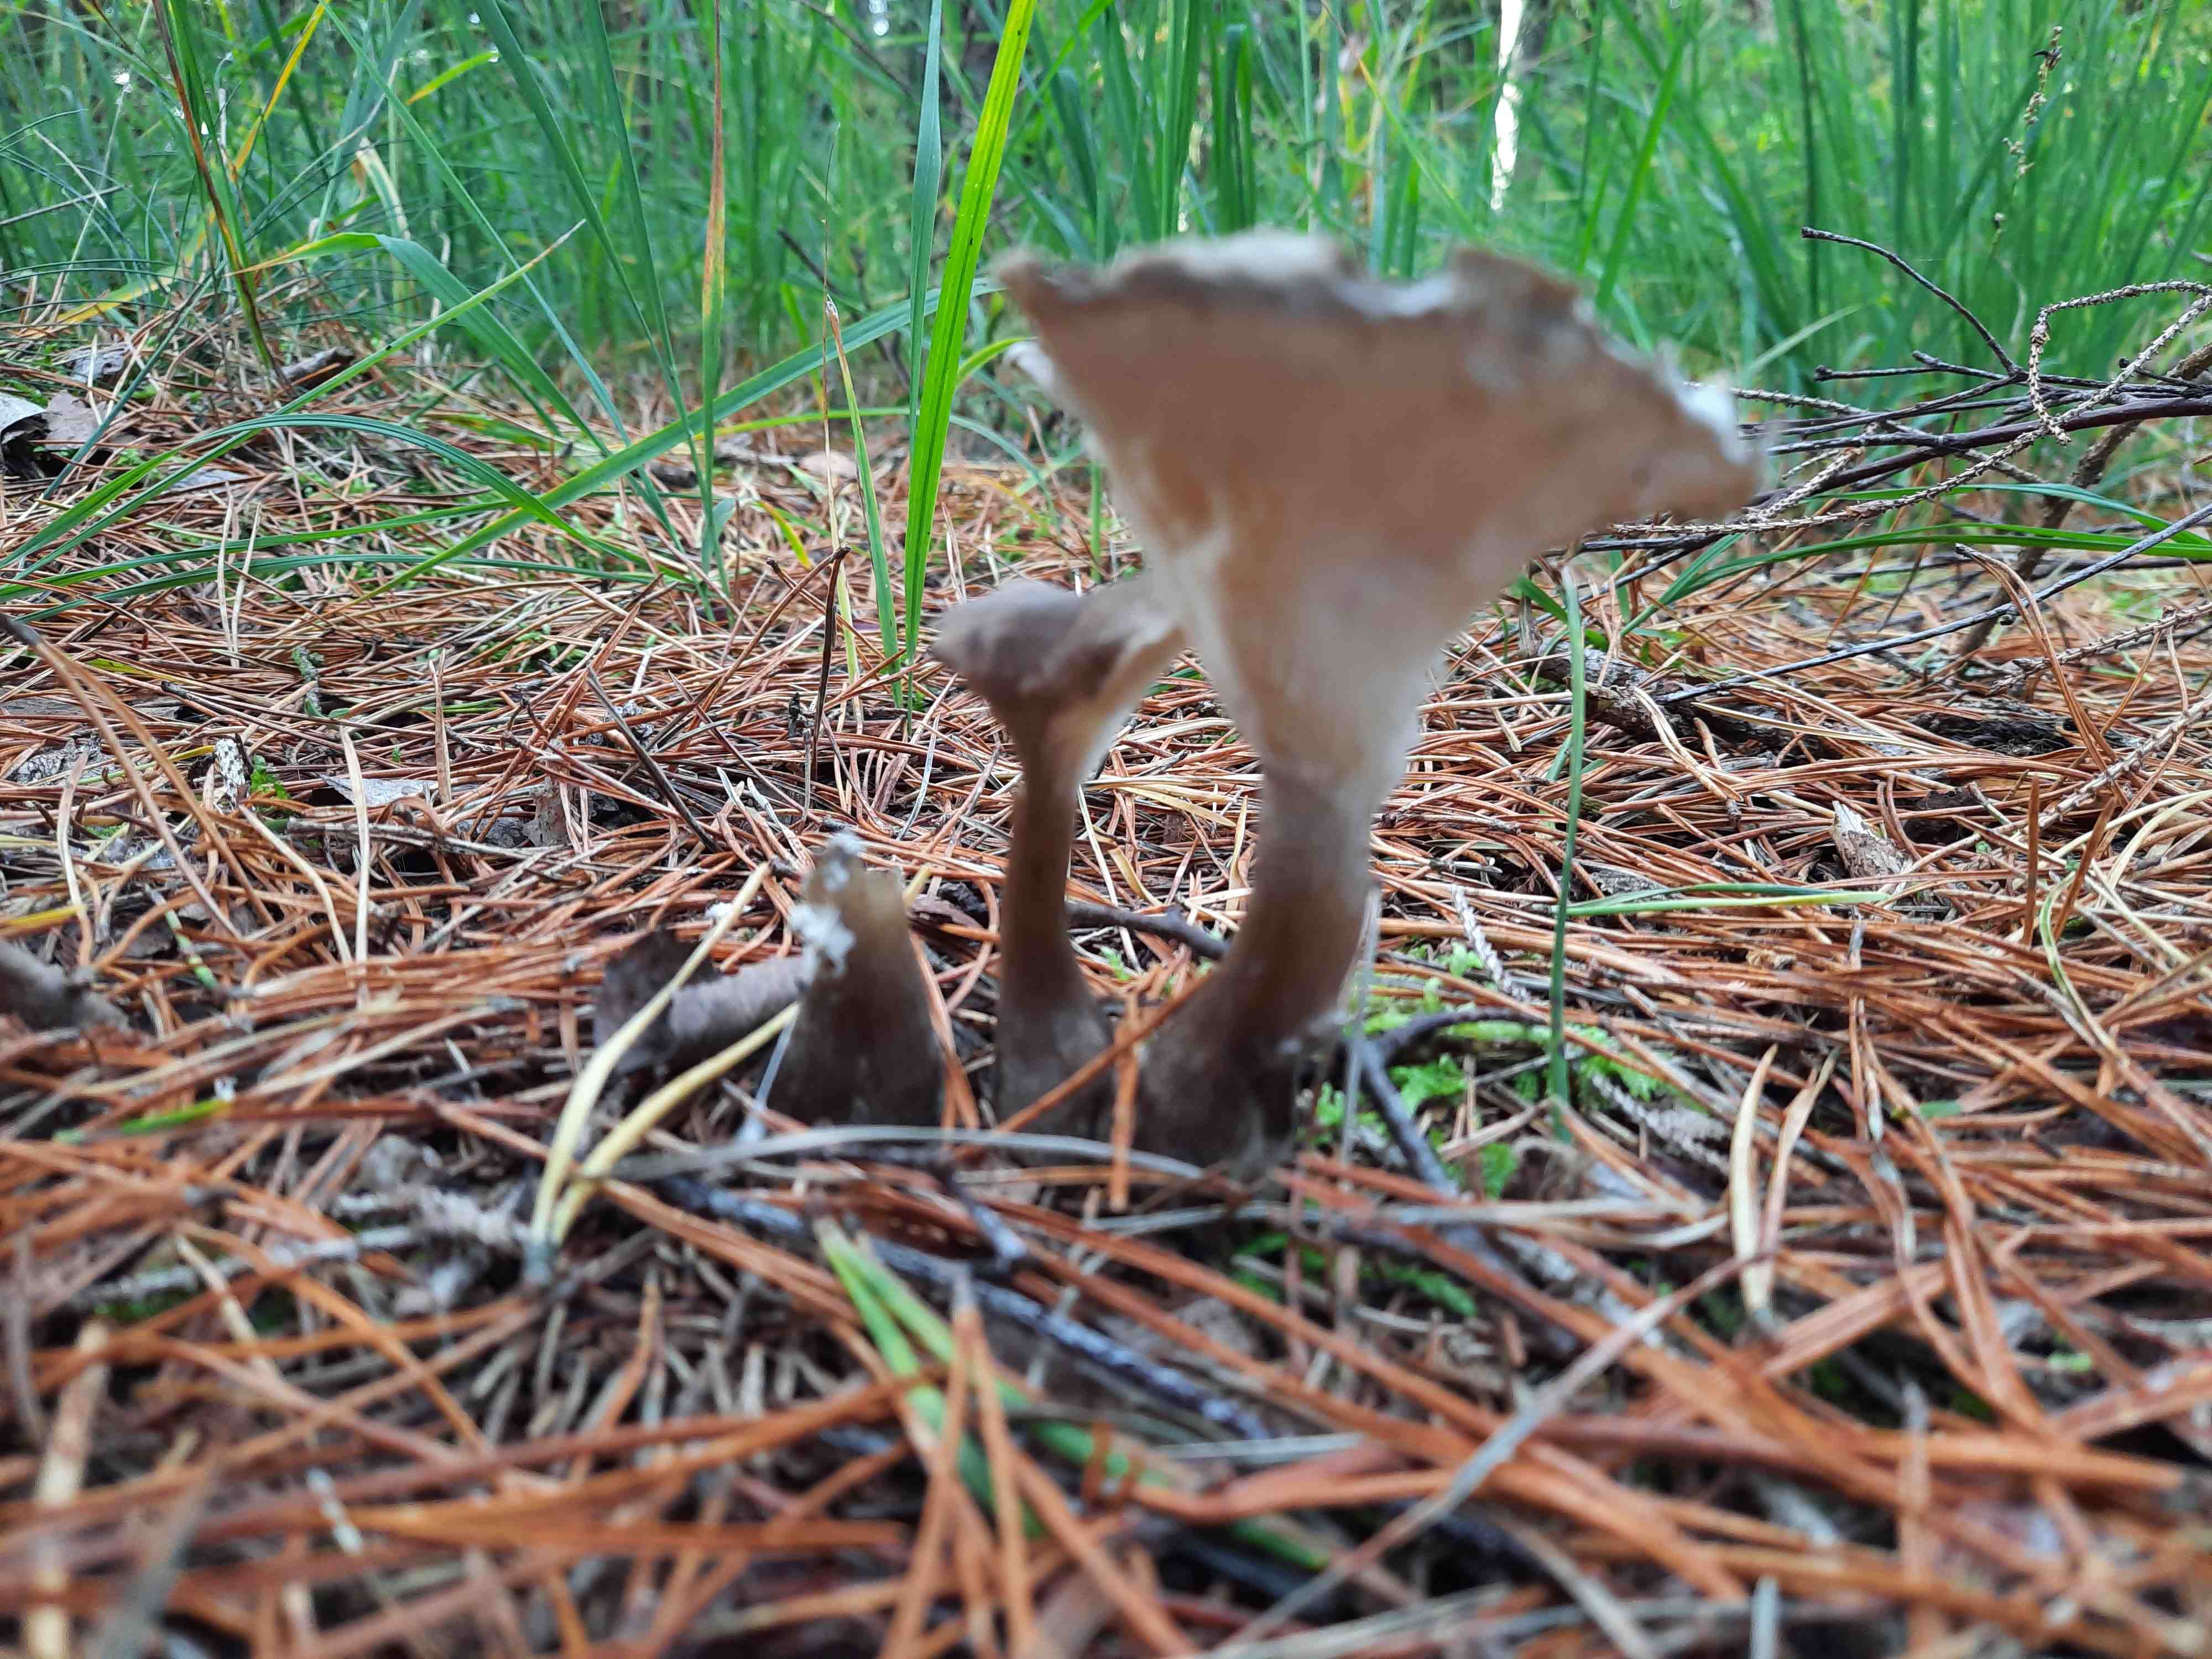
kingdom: Fungi
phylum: Basidiomycota
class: Agaricomycetes
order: Agaricales
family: Hygrophoraceae
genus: Ampulloclitocybe
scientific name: Ampulloclitocybe clavipes
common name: køllefod
